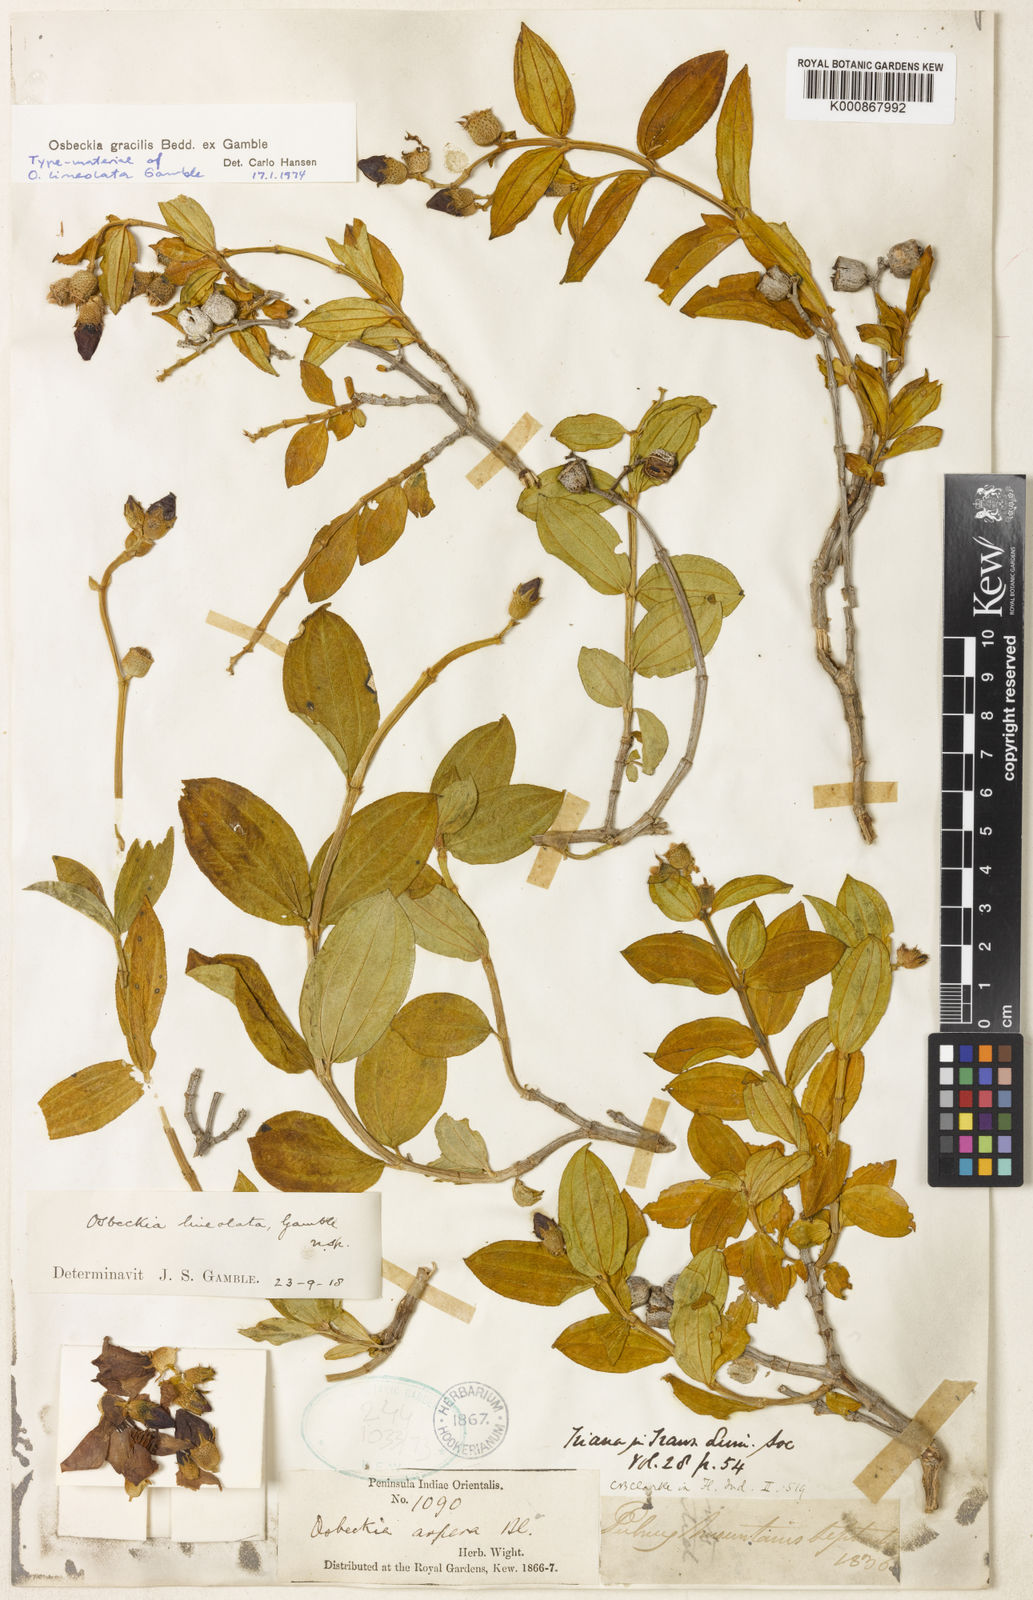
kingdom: Plantae
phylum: Tracheophyta
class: Magnoliopsida
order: Myrtales
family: Melastomataceae
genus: Osbeckia
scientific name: Osbeckia gracilis
